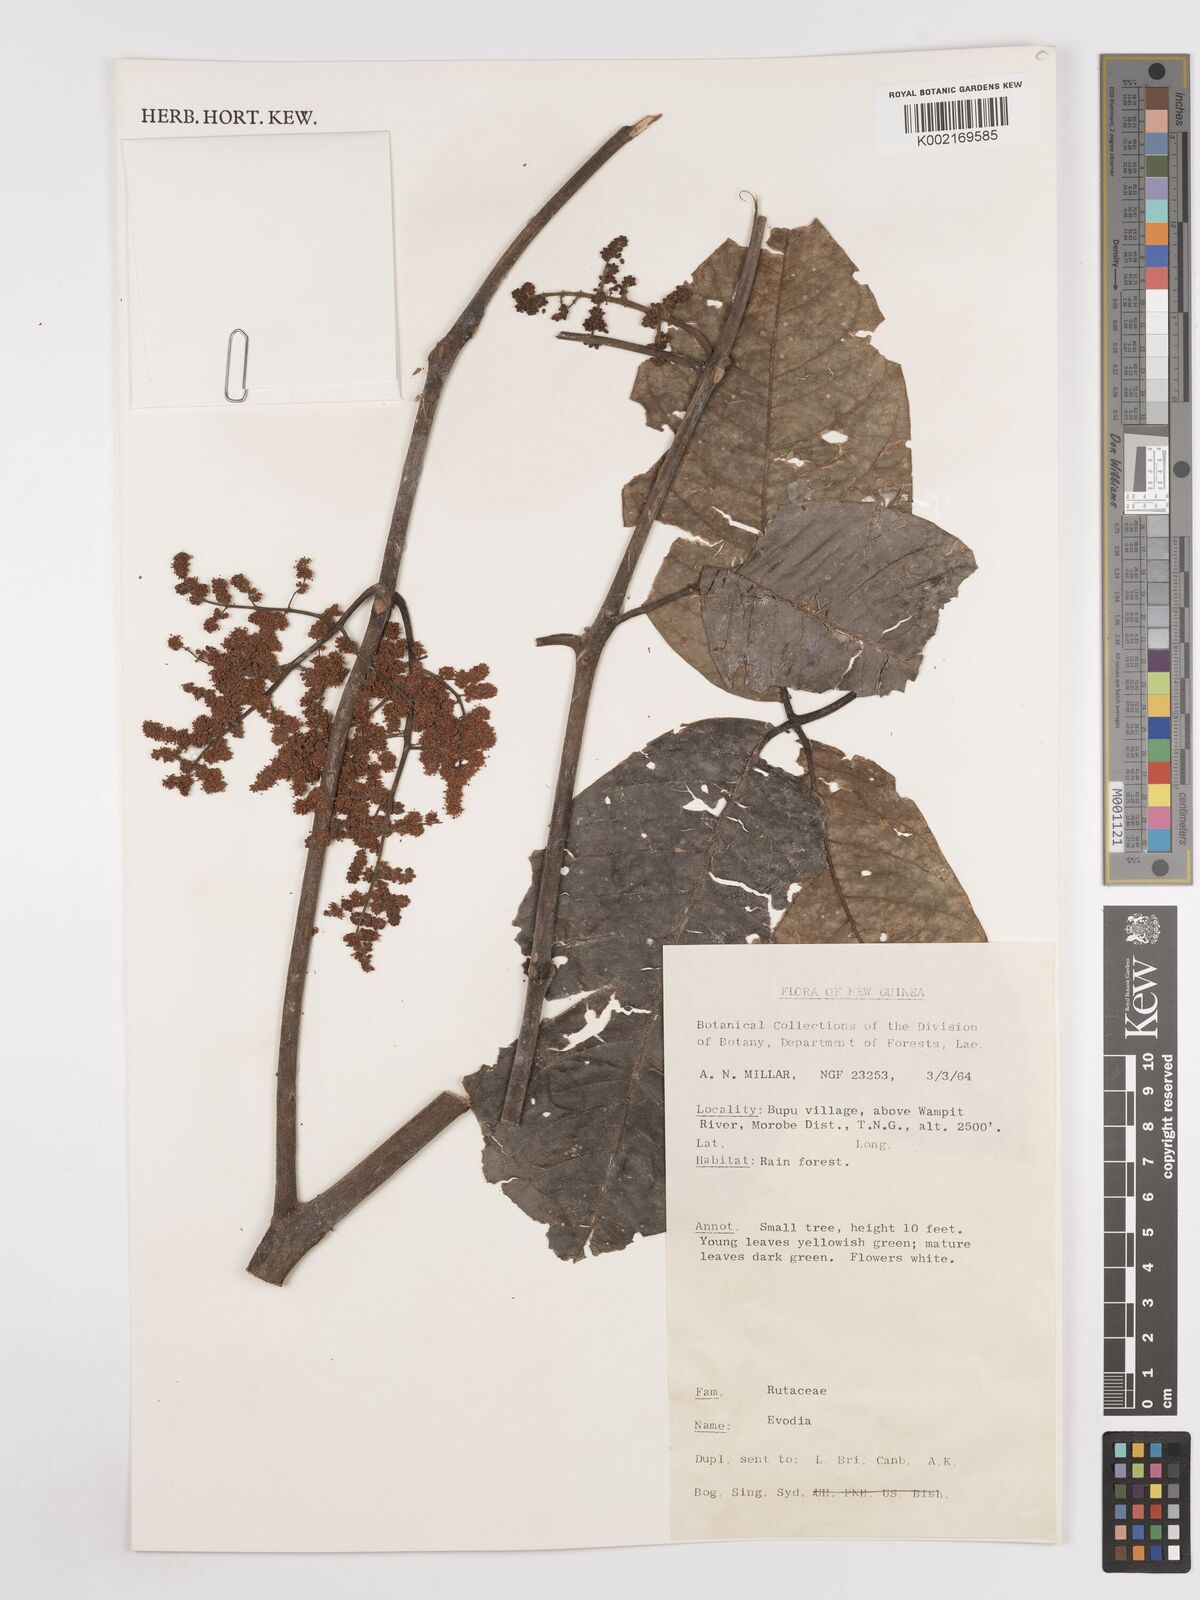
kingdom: Plantae
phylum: Tracheophyta
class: Magnoliopsida
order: Sapindales
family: Rutaceae
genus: Euodia
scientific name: Euodia
